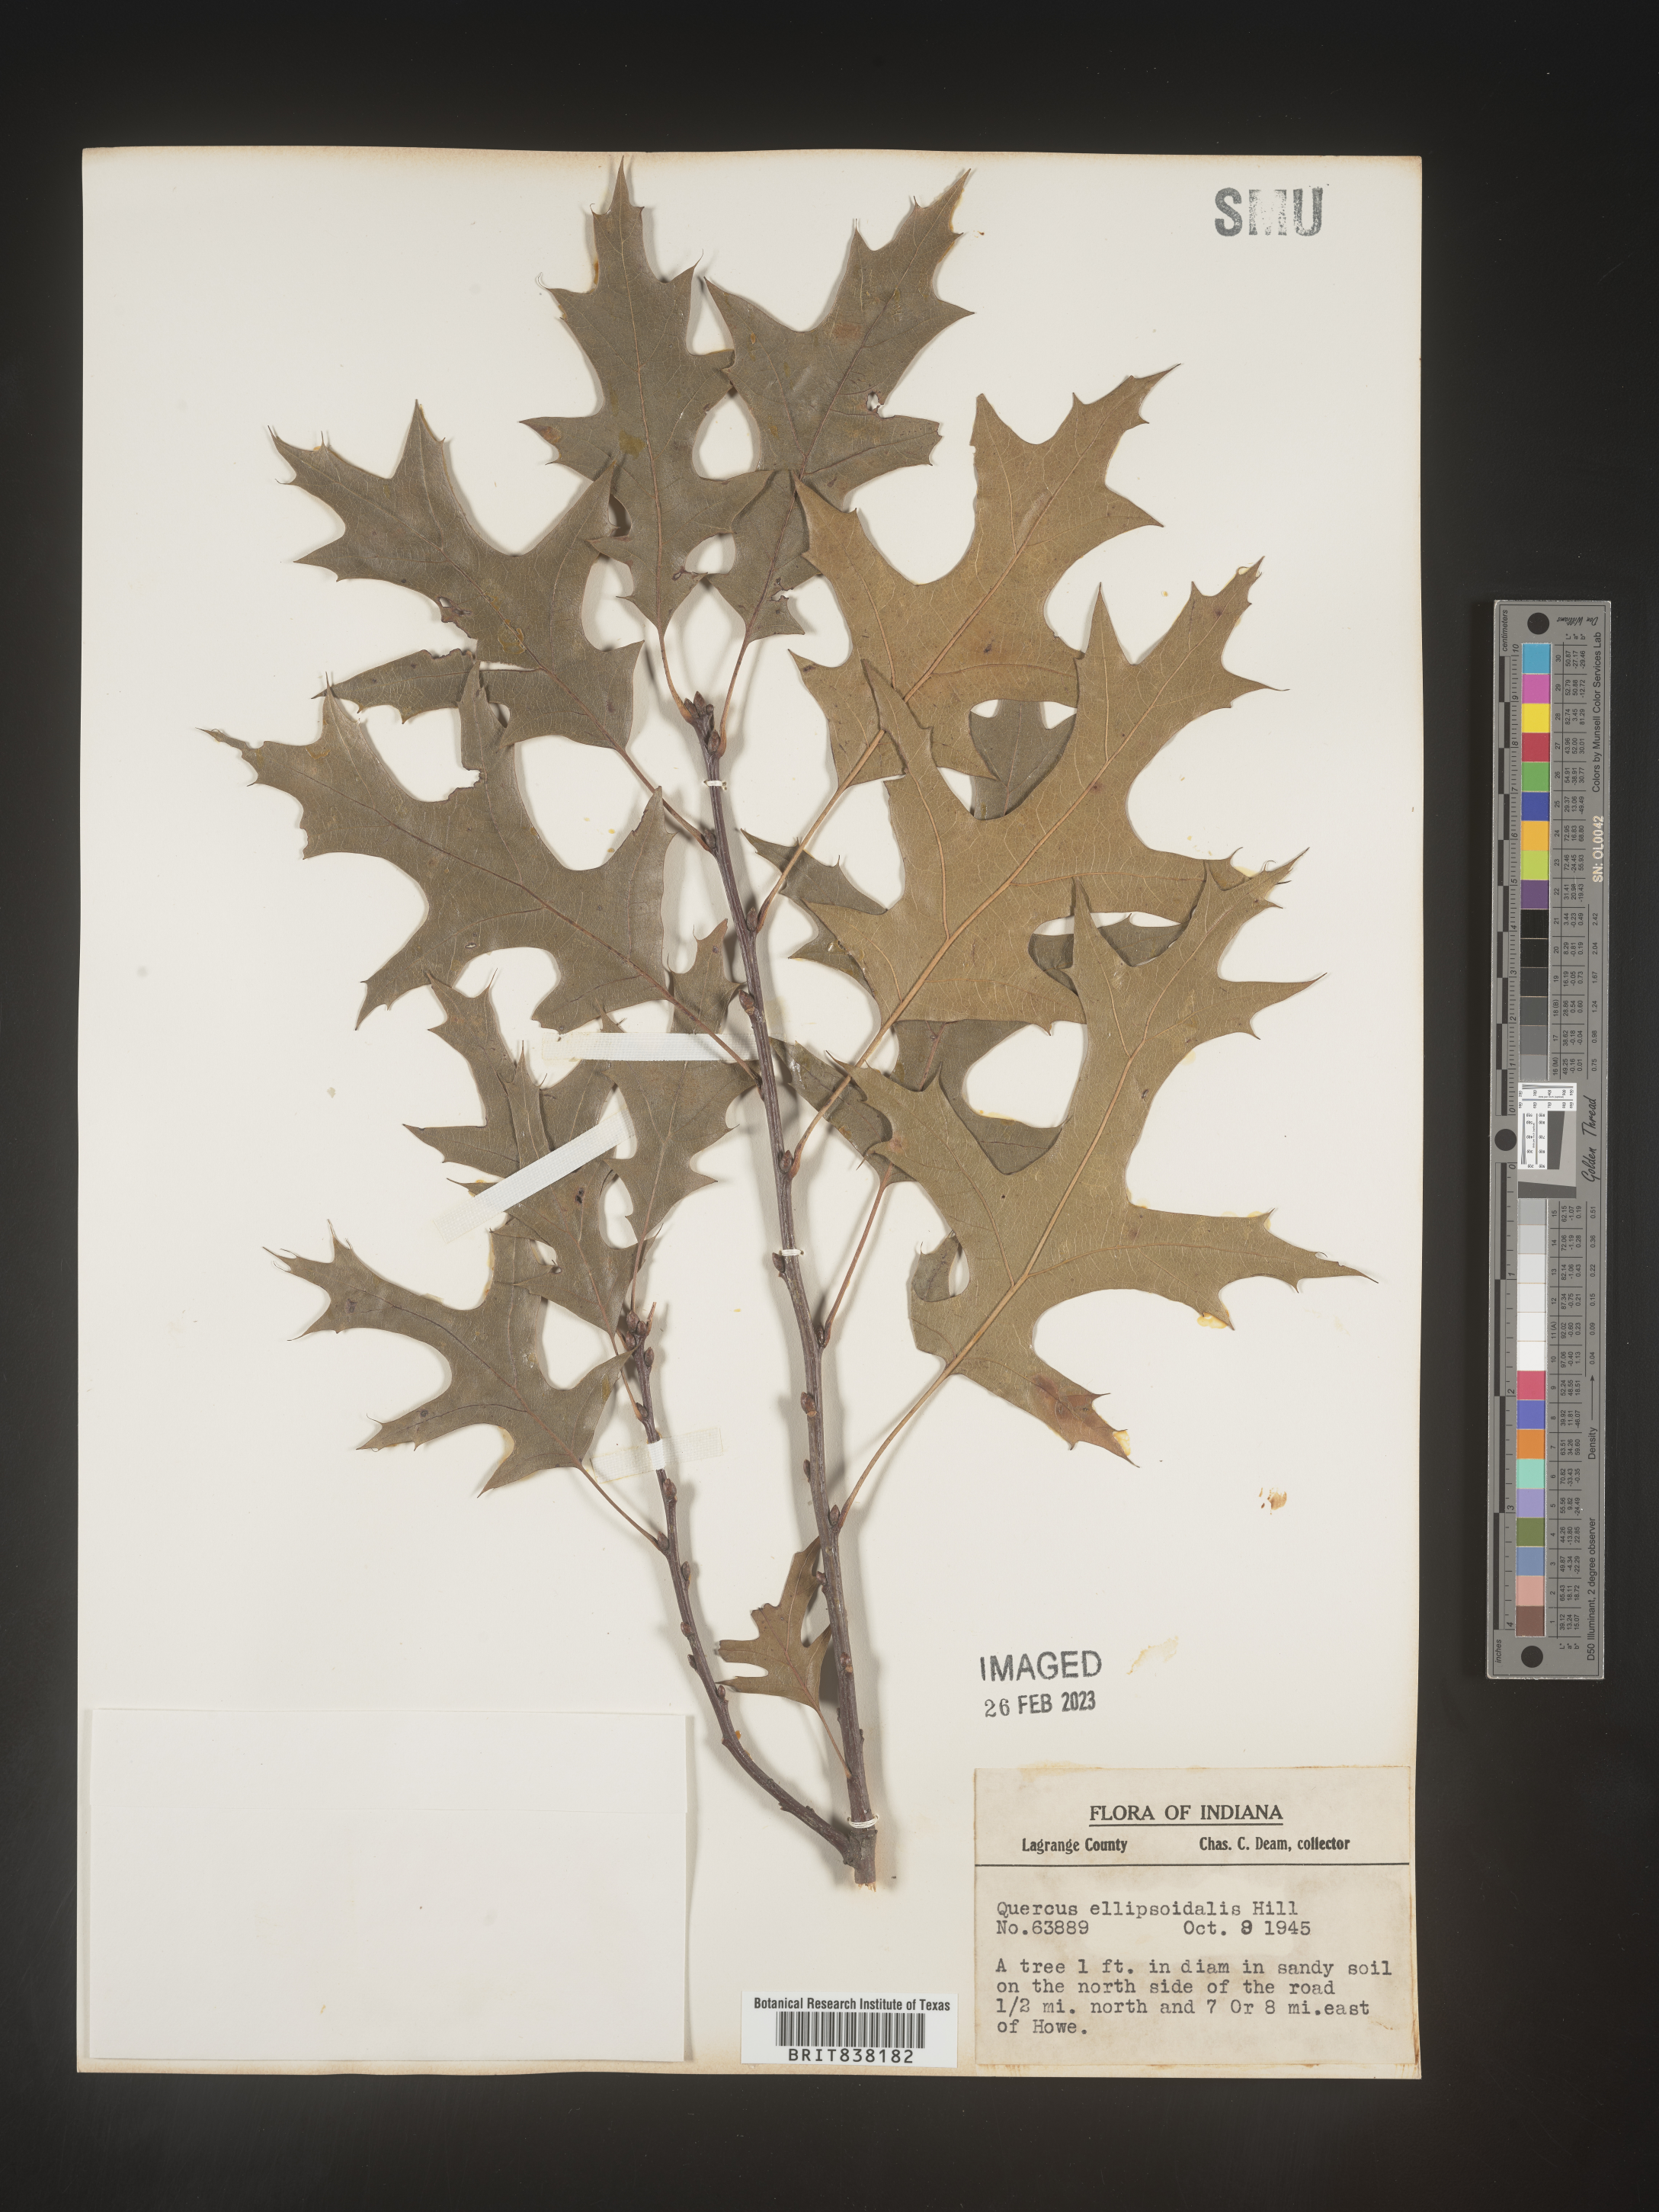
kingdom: Plantae
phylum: Tracheophyta
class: Magnoliopsida
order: Fagales
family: Fagaceae
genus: Quercus
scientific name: Quercus ellipsoidalis
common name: Hill's oak
